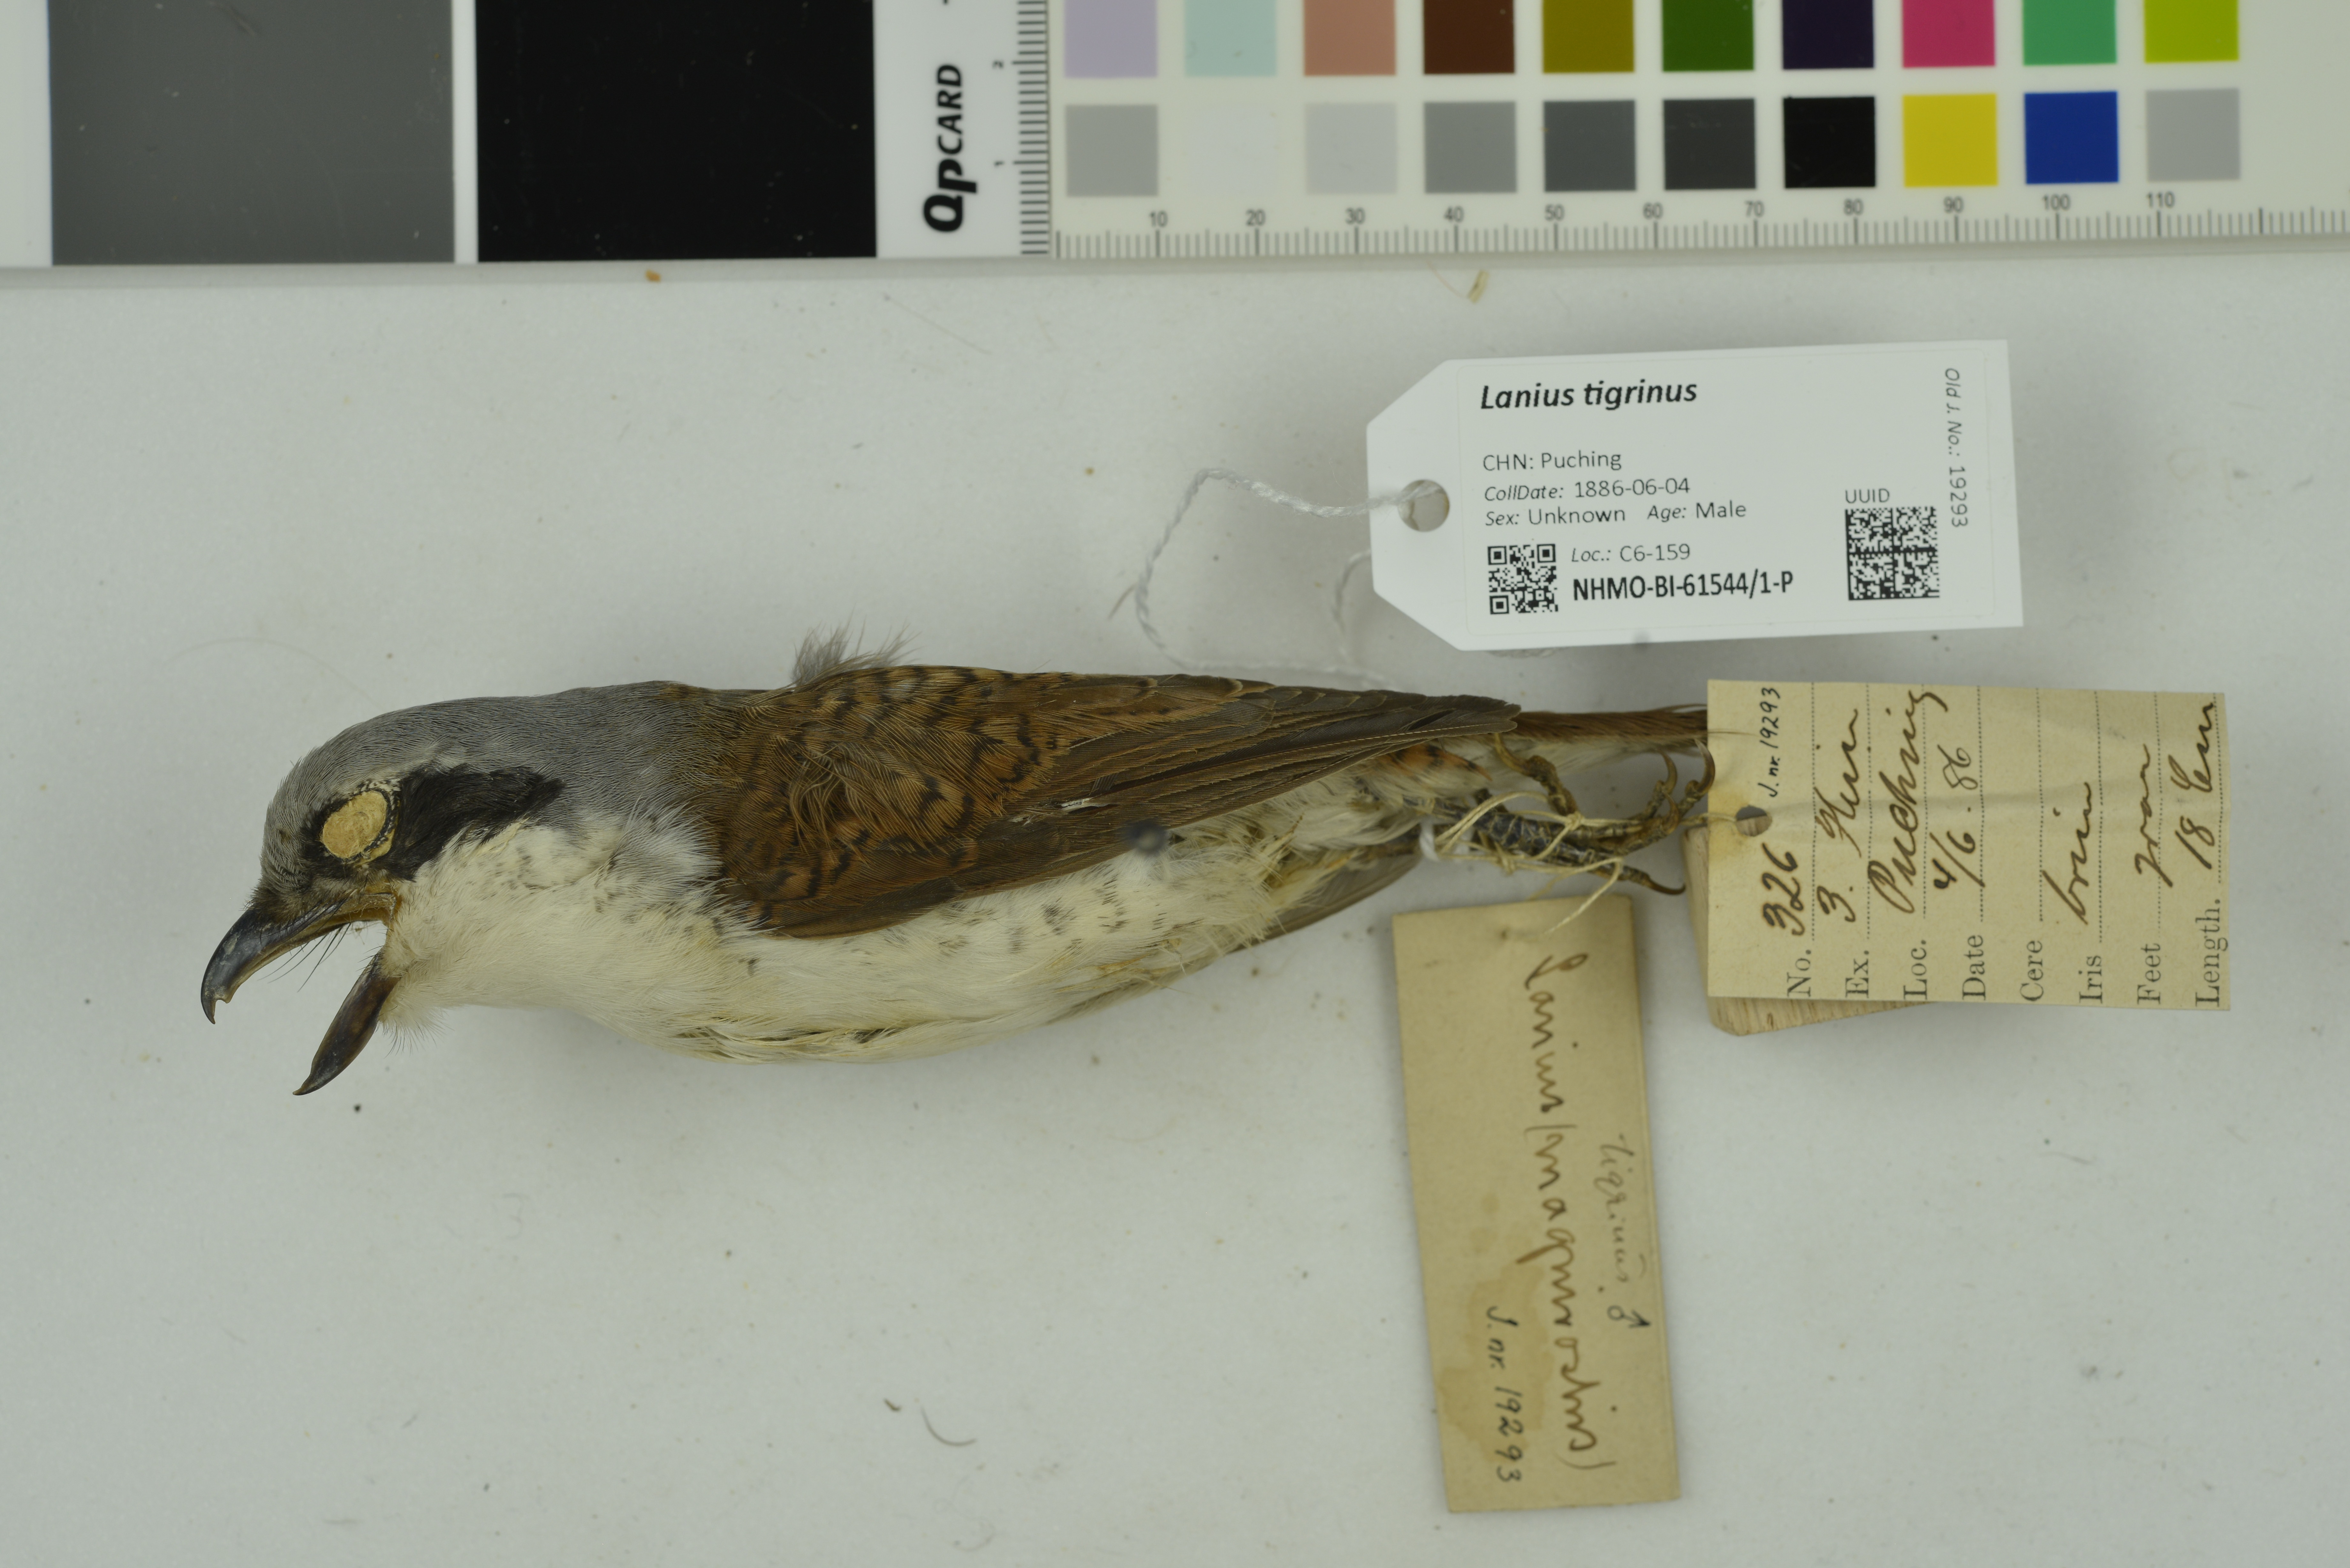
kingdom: Animalia
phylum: Chordata
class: Aves
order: Passeriformes
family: Laniidae
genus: Lanius
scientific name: Lanius tigrinus
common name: Tiger shrike
